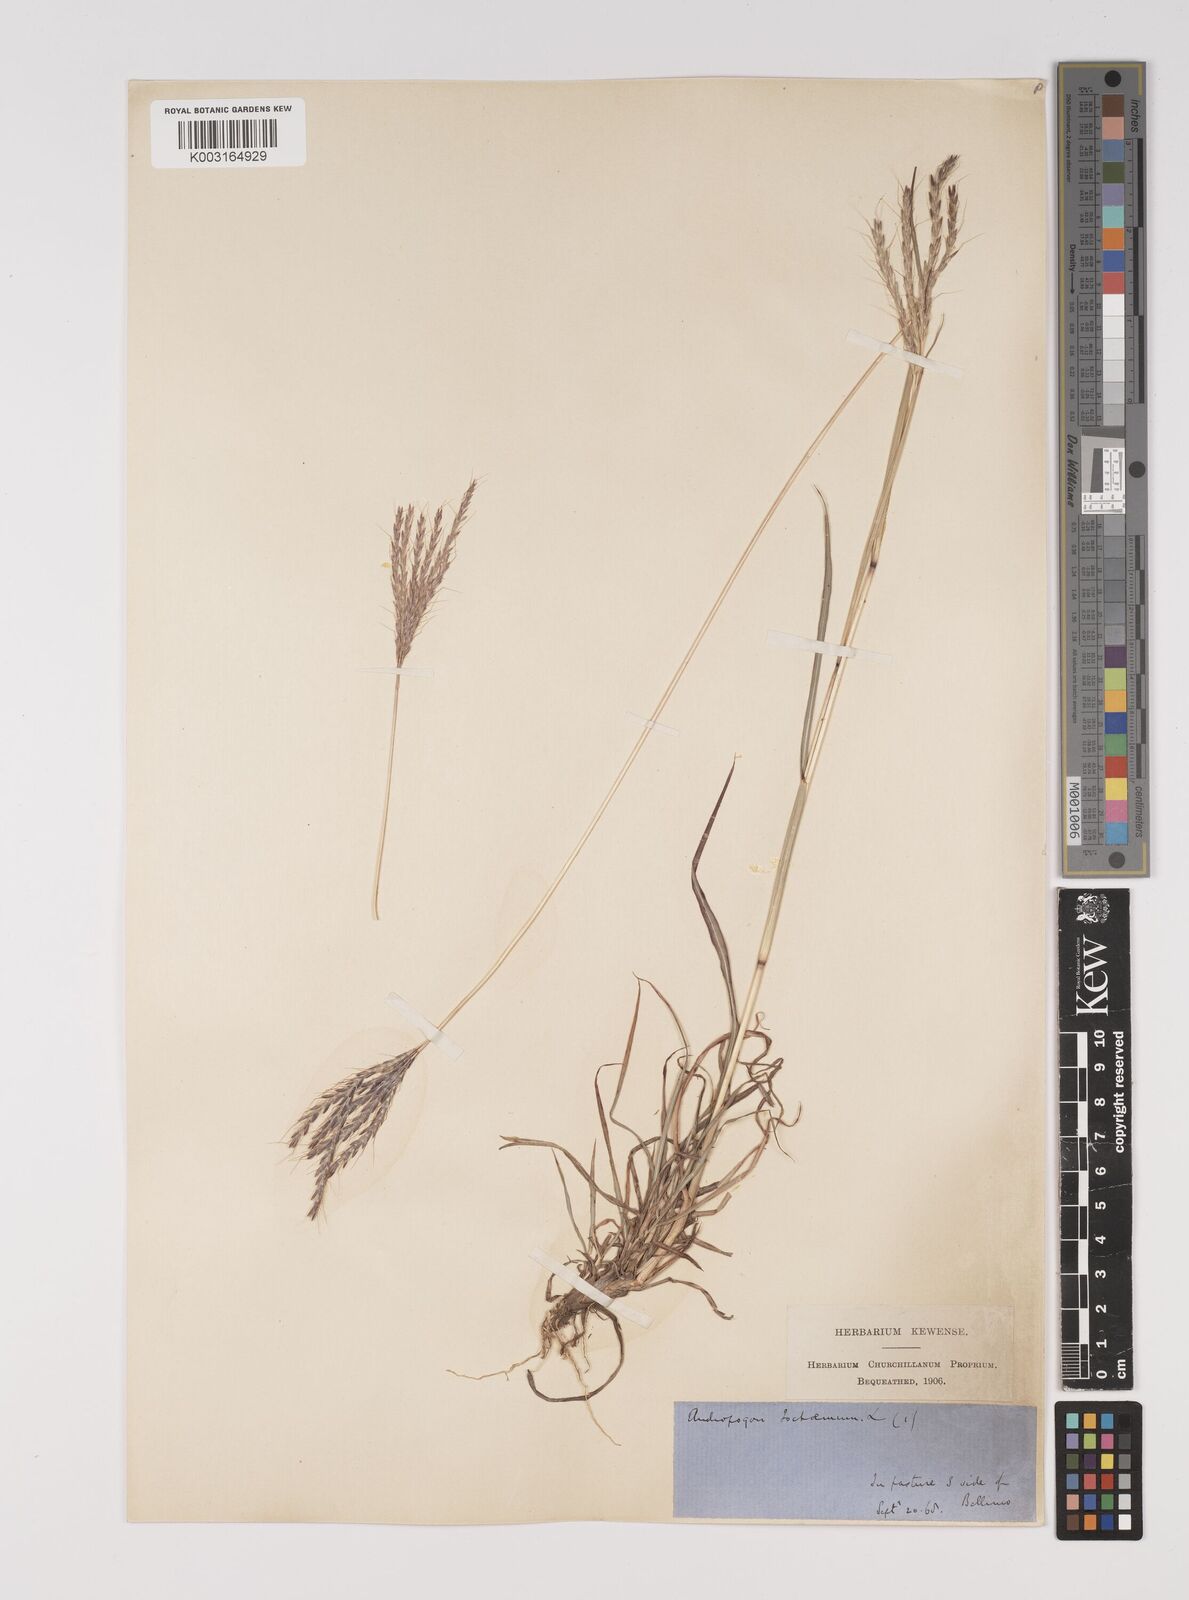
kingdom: Plantae
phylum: Tracheophyta
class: Liliopsida
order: Poales
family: Poaceae
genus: Bothriochloa
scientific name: Bothriochloa ischaemum
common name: Yellow bluestem
